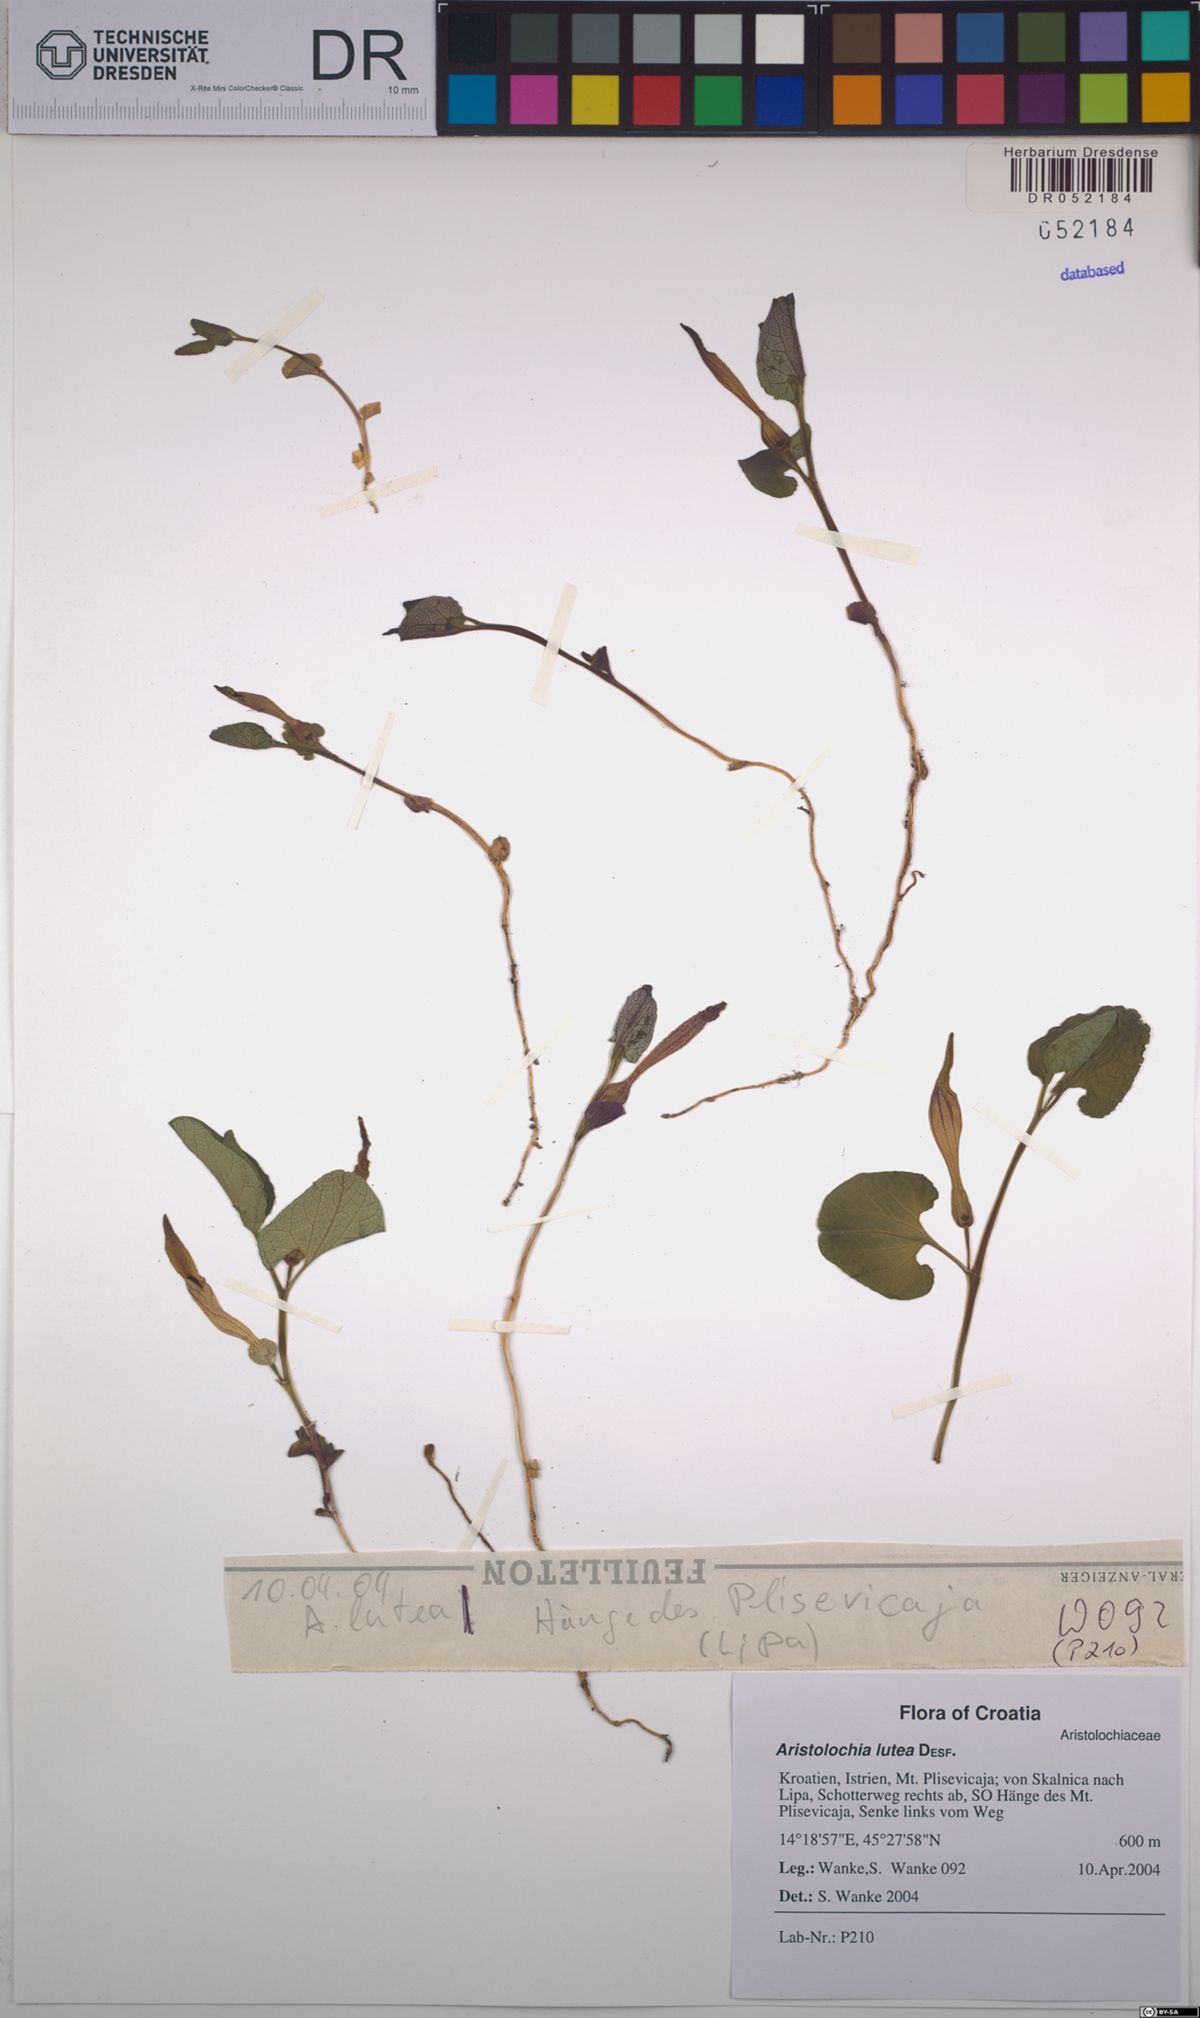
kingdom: Plantae
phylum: Tracheophyta
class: Magnoliopsida
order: Piperales
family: Aristolochiaceae
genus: Aristolochia
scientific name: Aristolochia lutea
